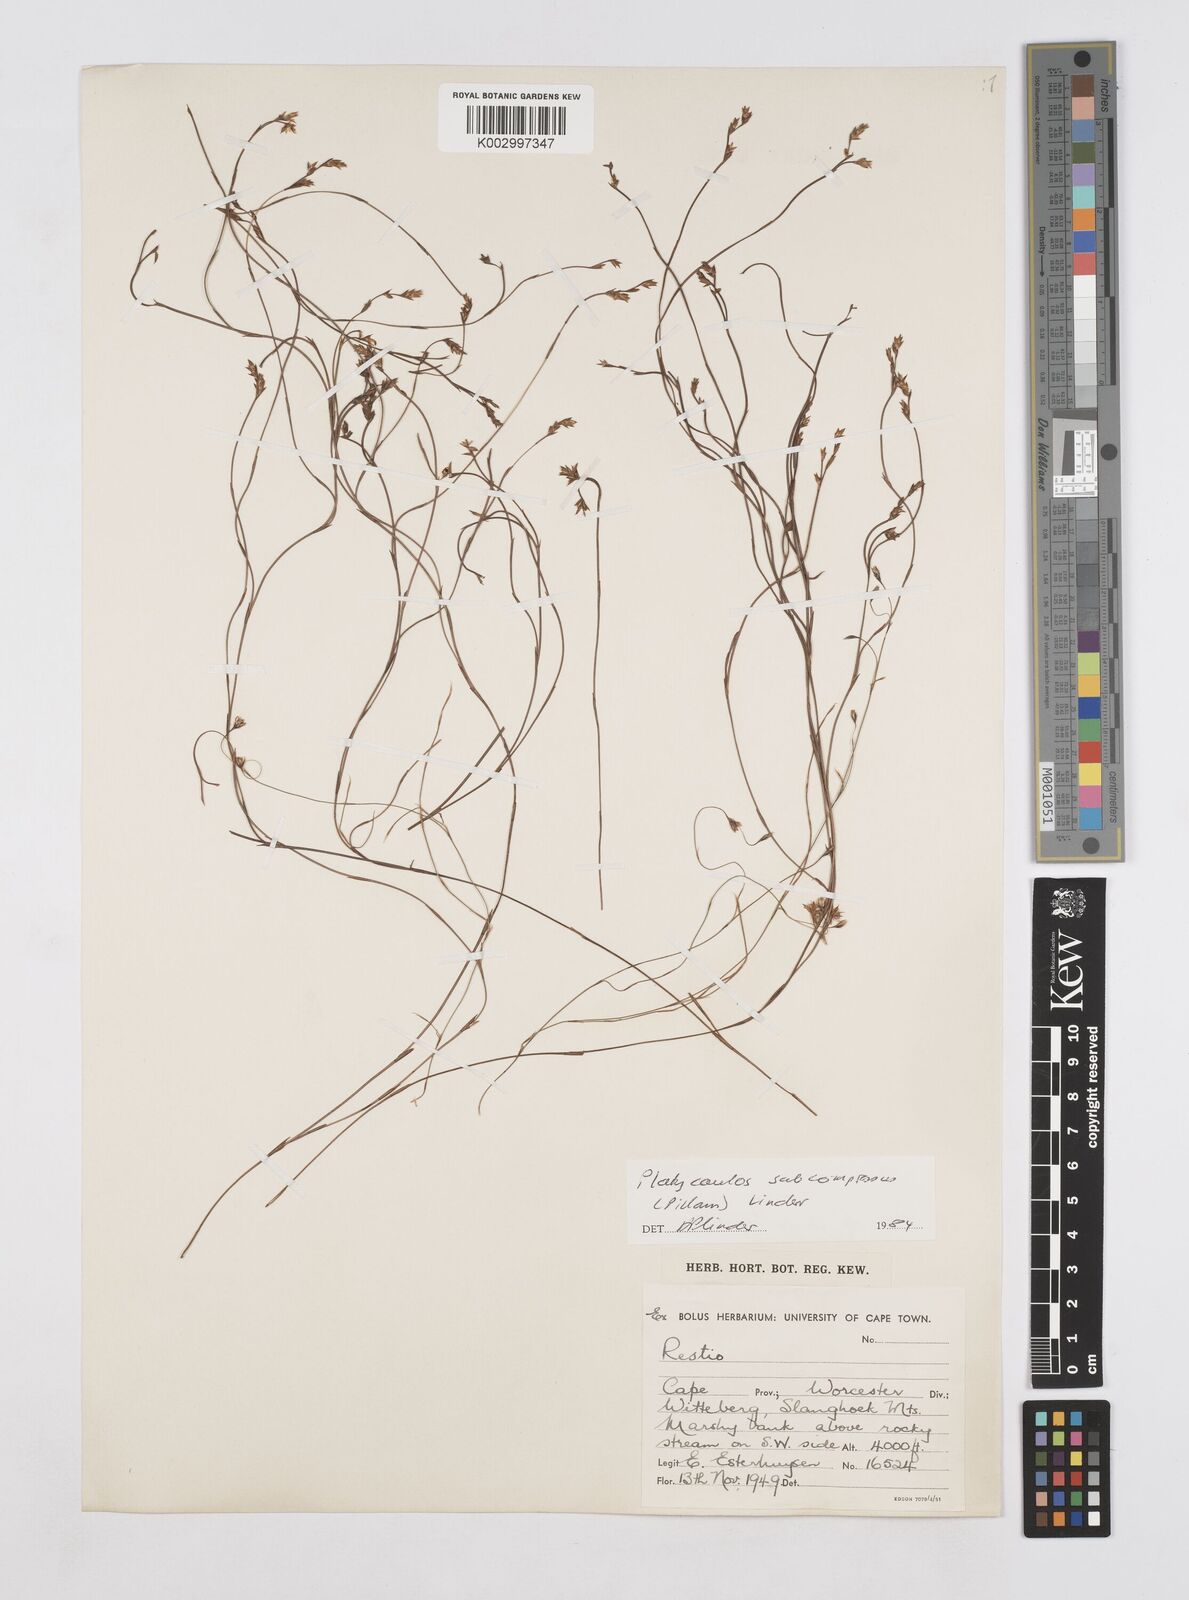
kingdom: Plantae
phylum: Tracheophyta
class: Liliopsida
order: Poales
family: Restionaceae
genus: Platycaulos
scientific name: Platycaulos subcompressus
